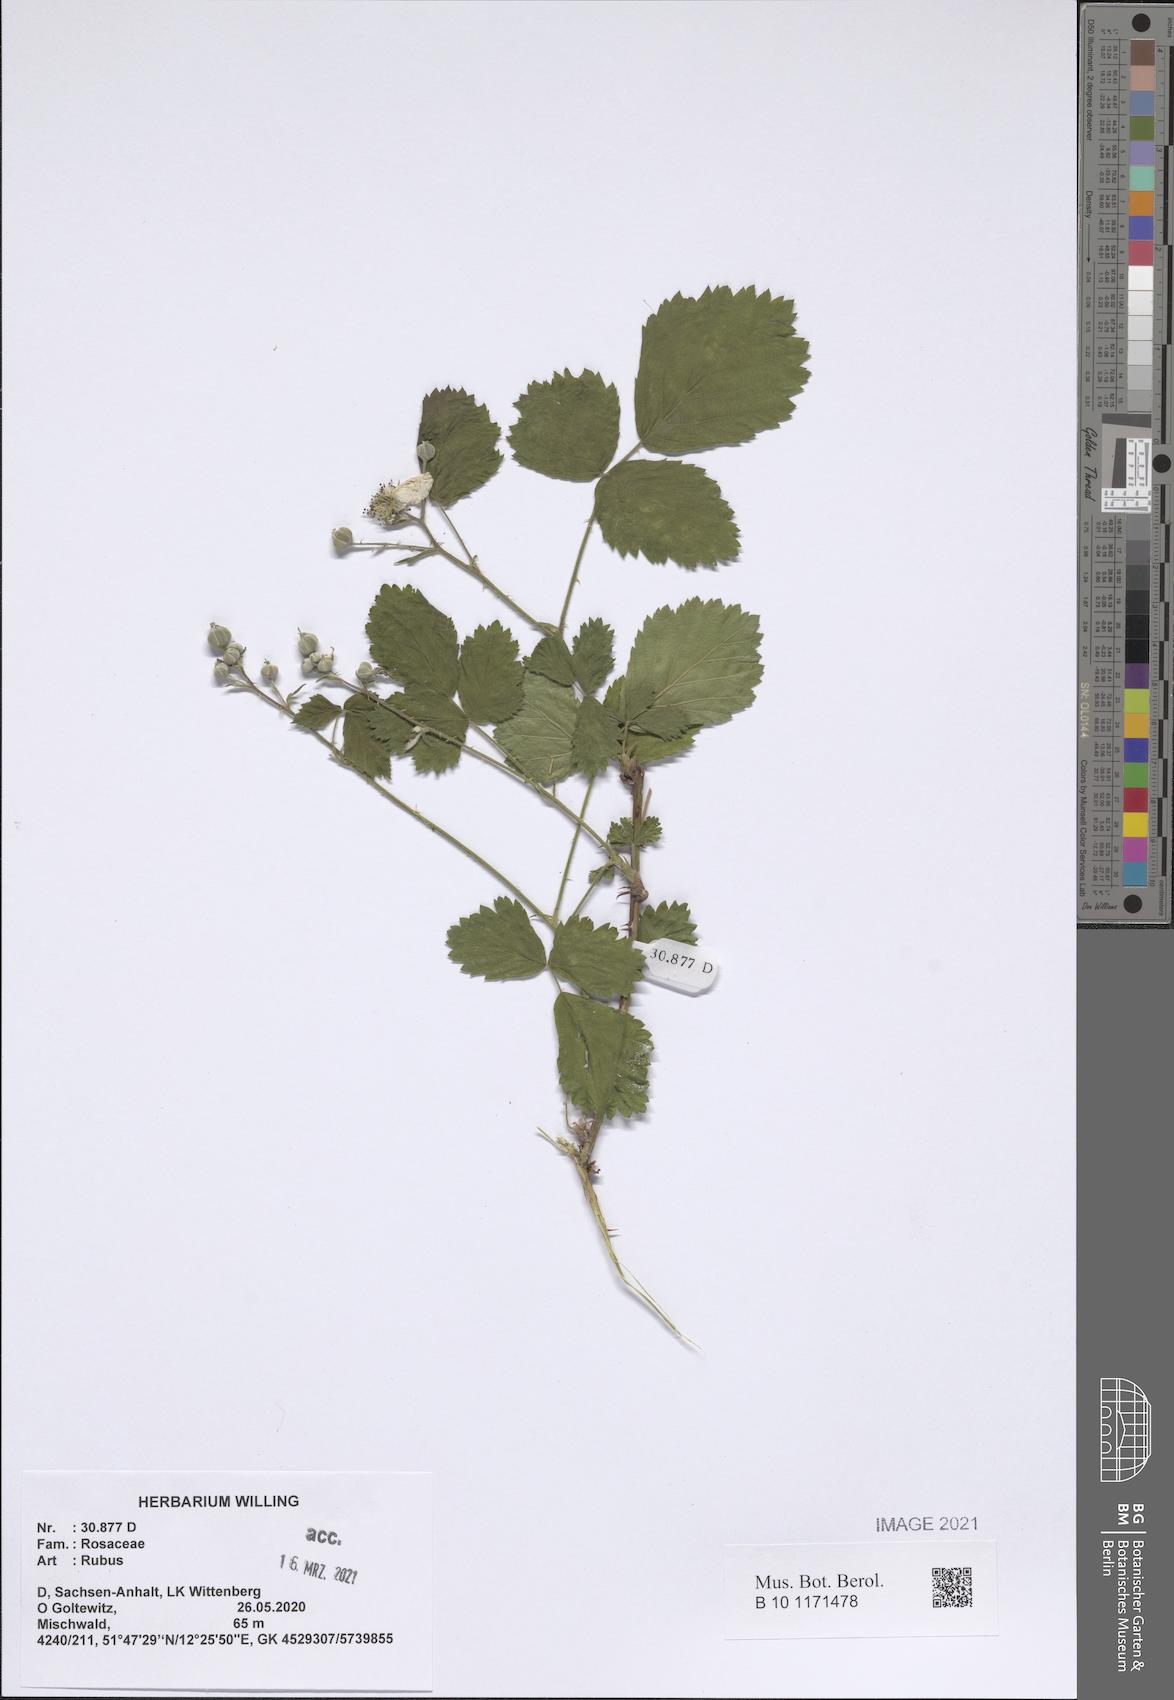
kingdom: Plantae
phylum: Tracheophyta
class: Magnoliopsida
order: Rosales
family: Rosaceae
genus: Rubus
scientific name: Rubus
